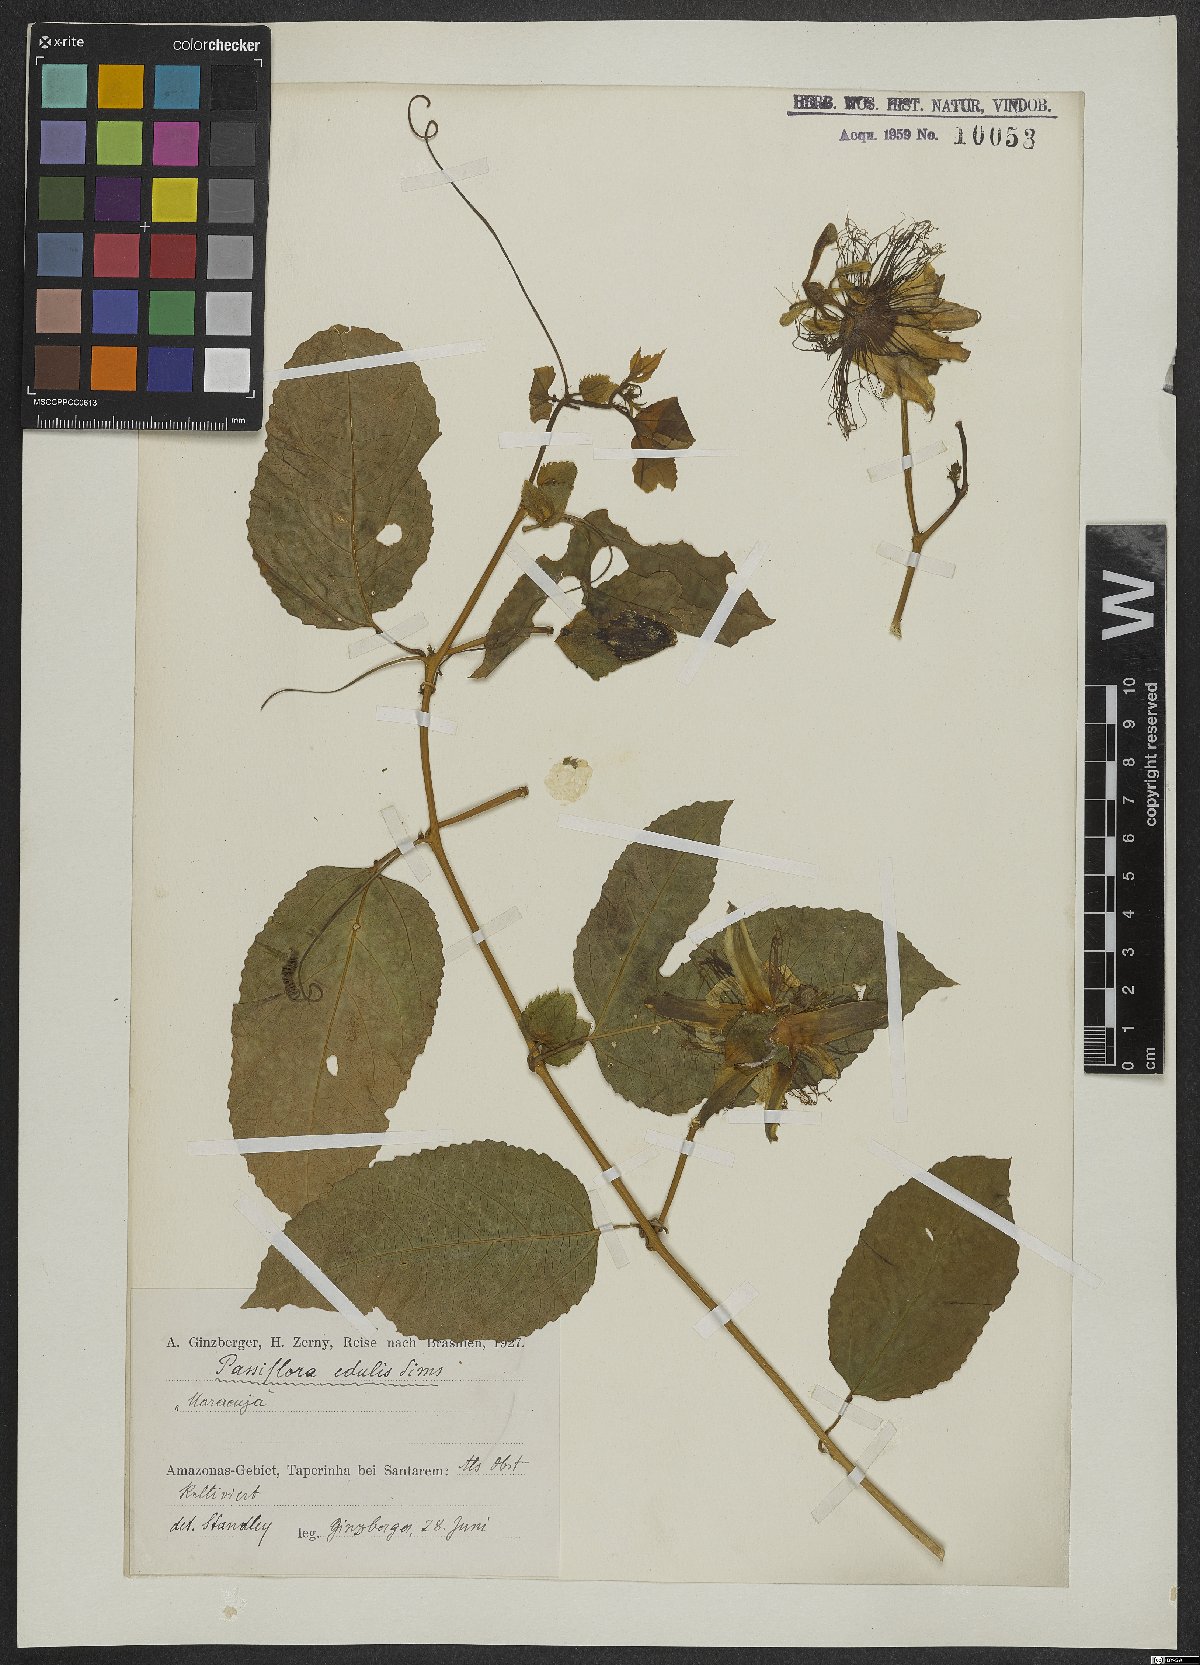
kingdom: Plantae
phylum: Tracheophyta
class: Magnoliopsida
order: Malpighiales
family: Passifloraceae
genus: Passiflora
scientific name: Passiflora edulis
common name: Purple granadilla
